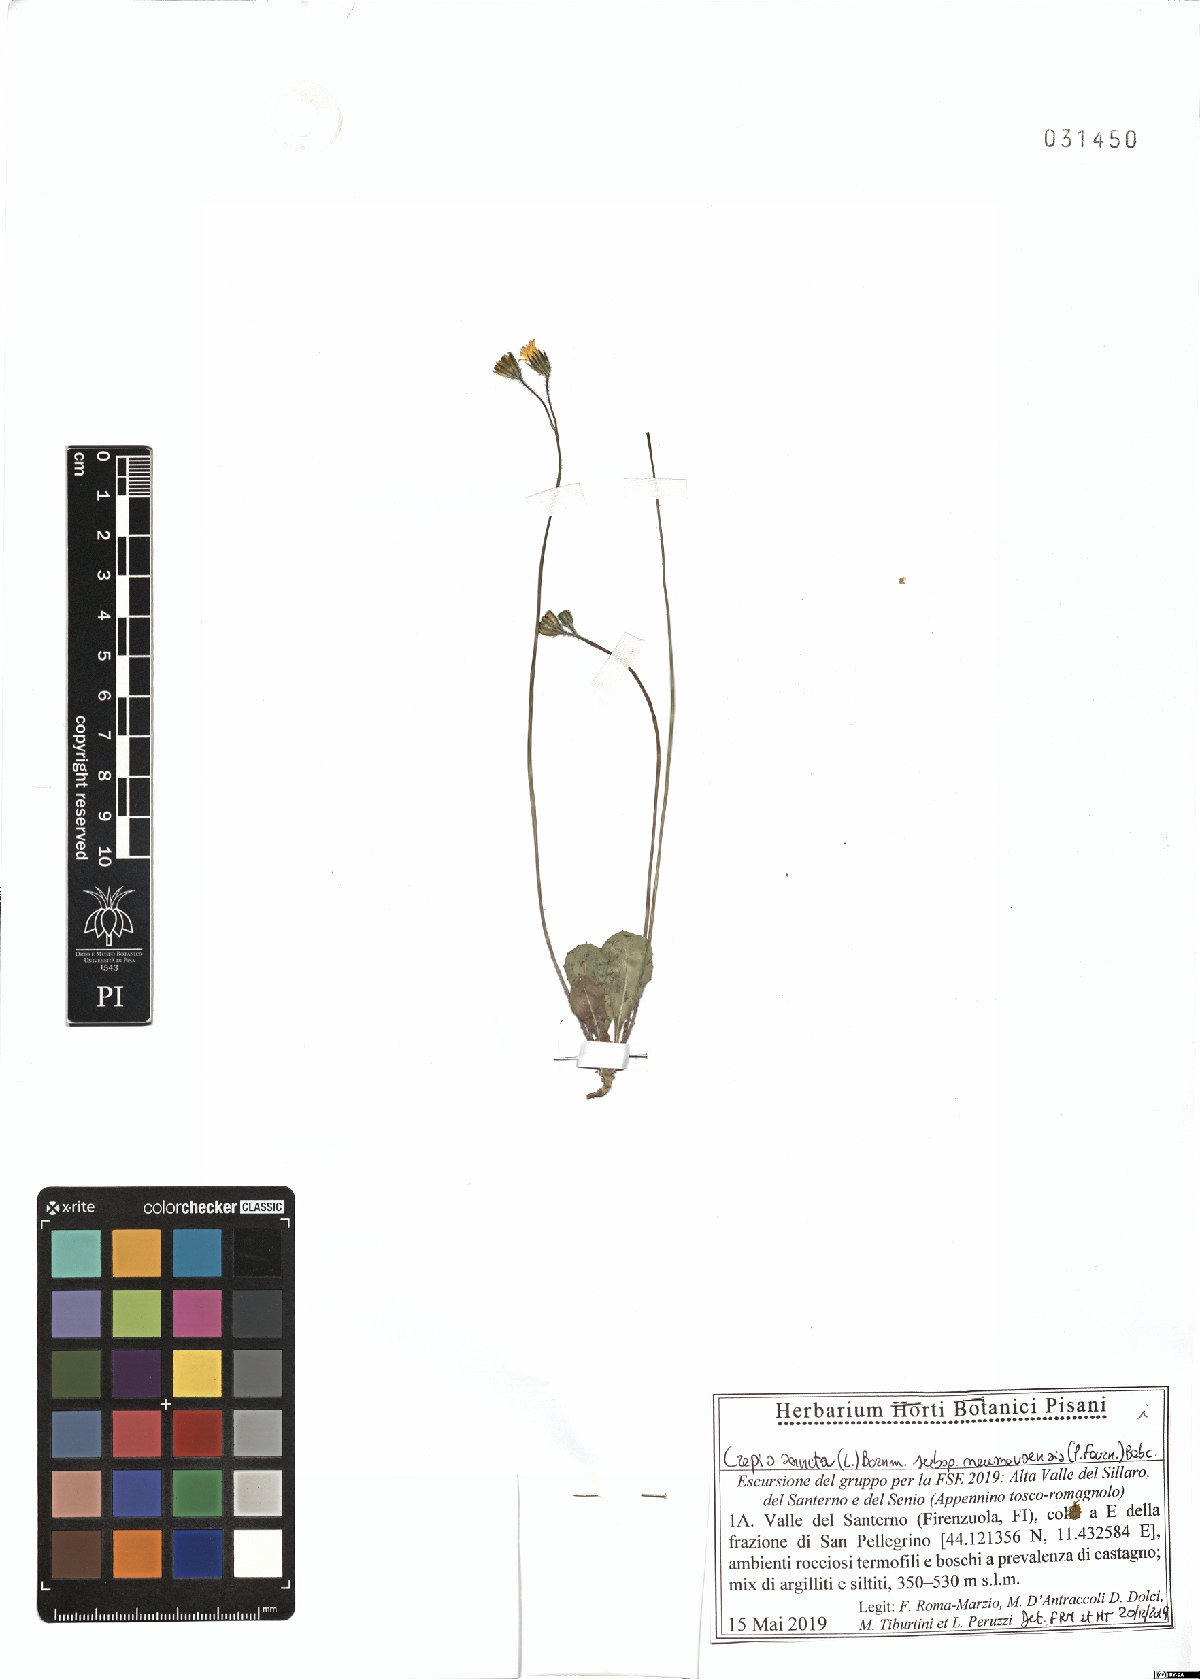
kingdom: Plantae
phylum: Tracheophyta
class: Magnoliopsida
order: Asterales
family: Asteraceae
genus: Crepis
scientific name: Crepis sancta
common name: Hawk's-beard
